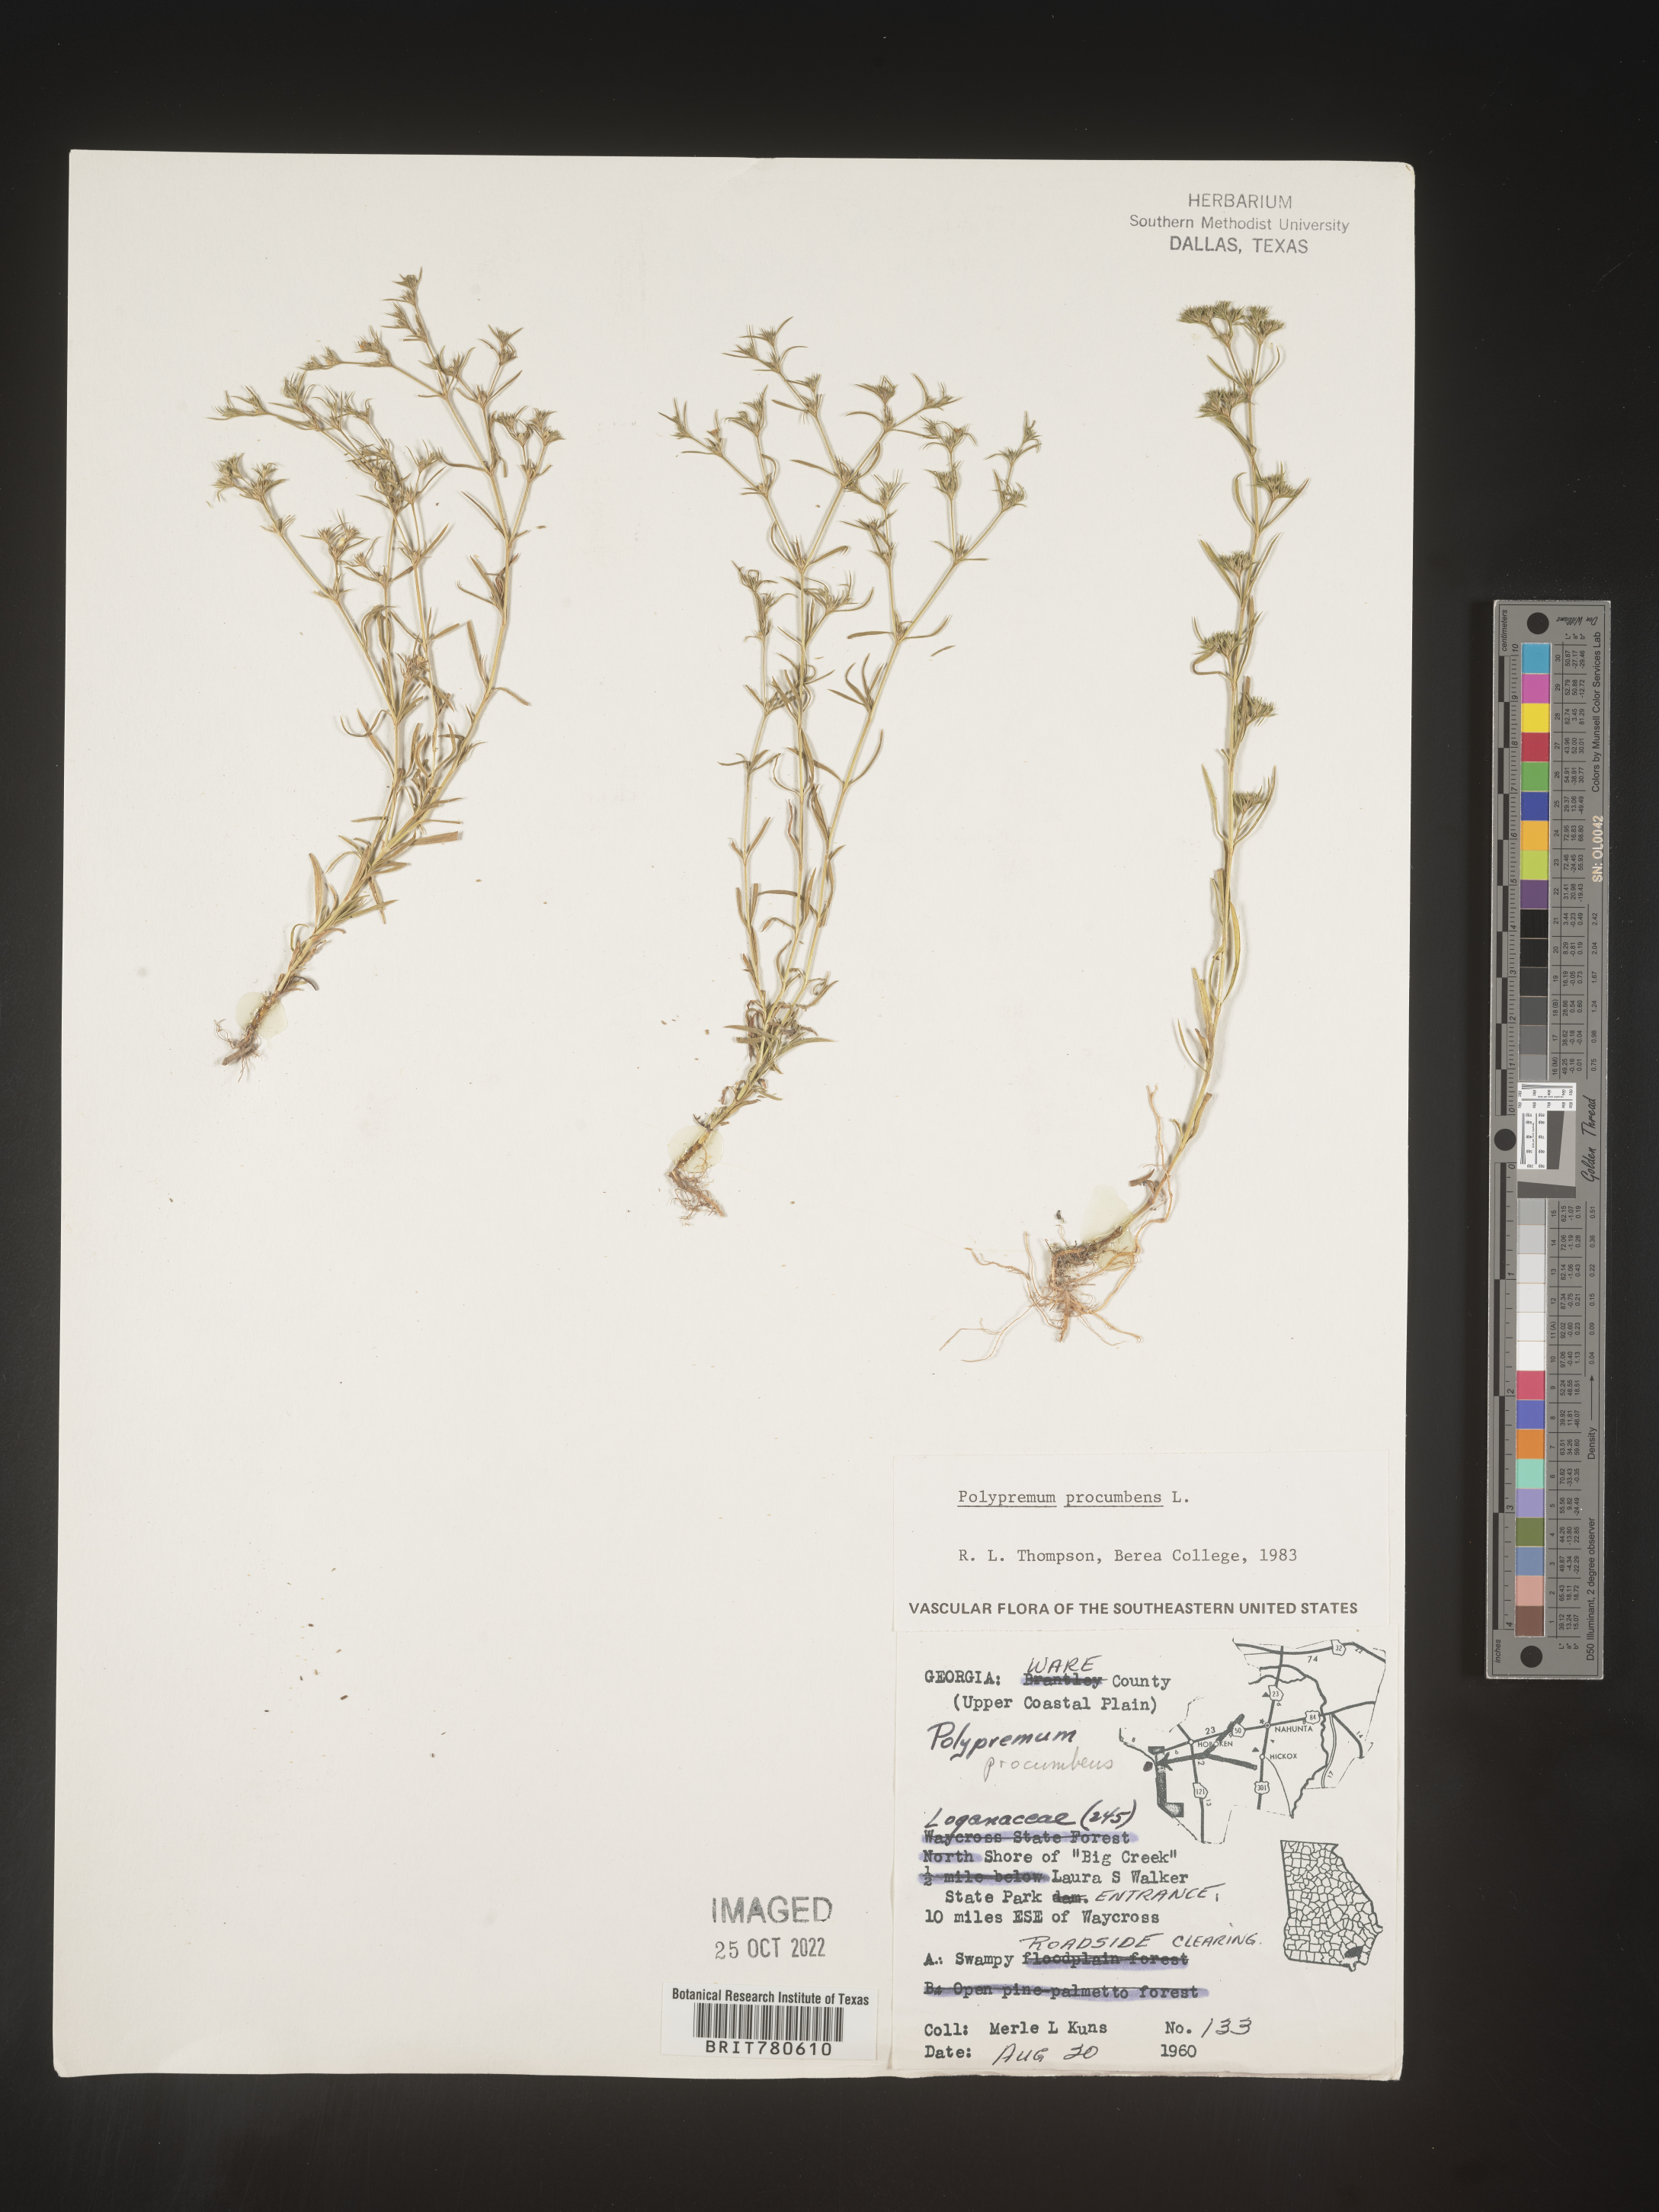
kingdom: Plantae
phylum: Tracheophyta
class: Magnoliopsida
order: Lamiales
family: Tetrachondraceae
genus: Polypremum
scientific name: Polypremum procumbens
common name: Juniper-leaf
